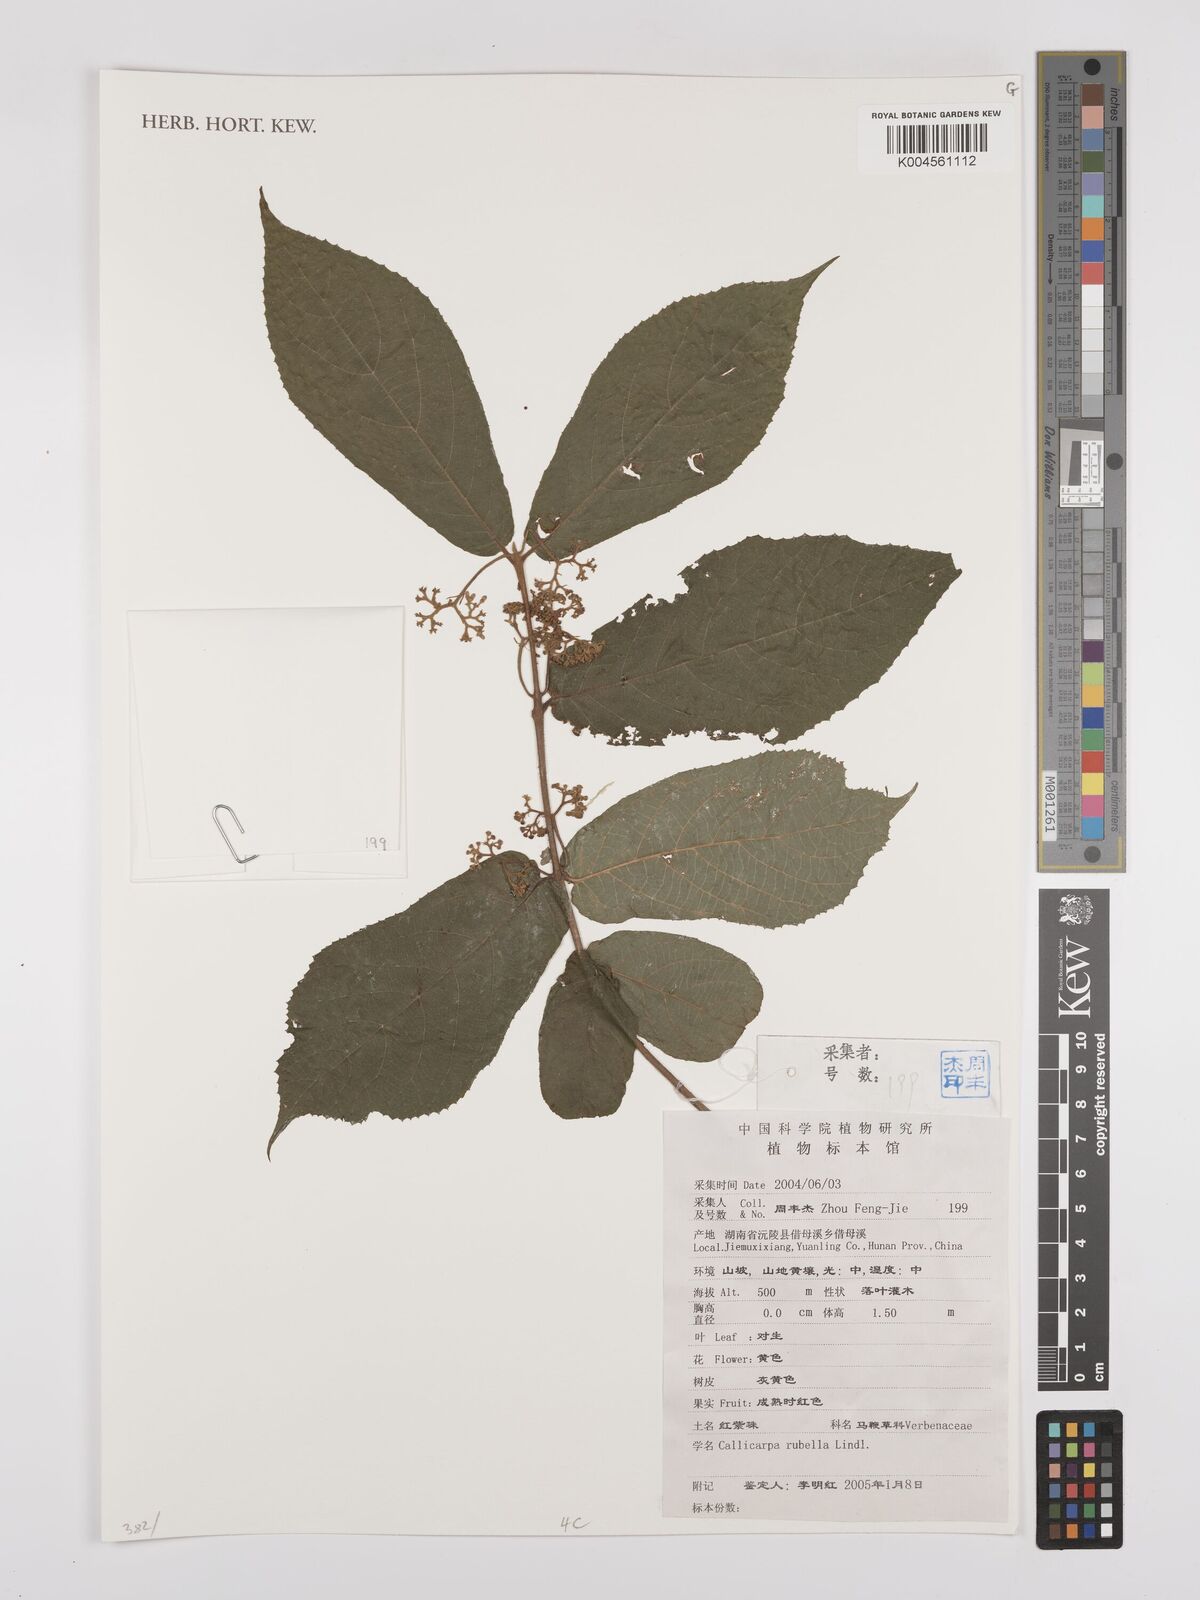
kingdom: Plantae
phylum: Tracheophyta
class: Magnoliopsida
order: Lamiales
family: Lamiaceae
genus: Callicarpa
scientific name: Callicarpa rubella
